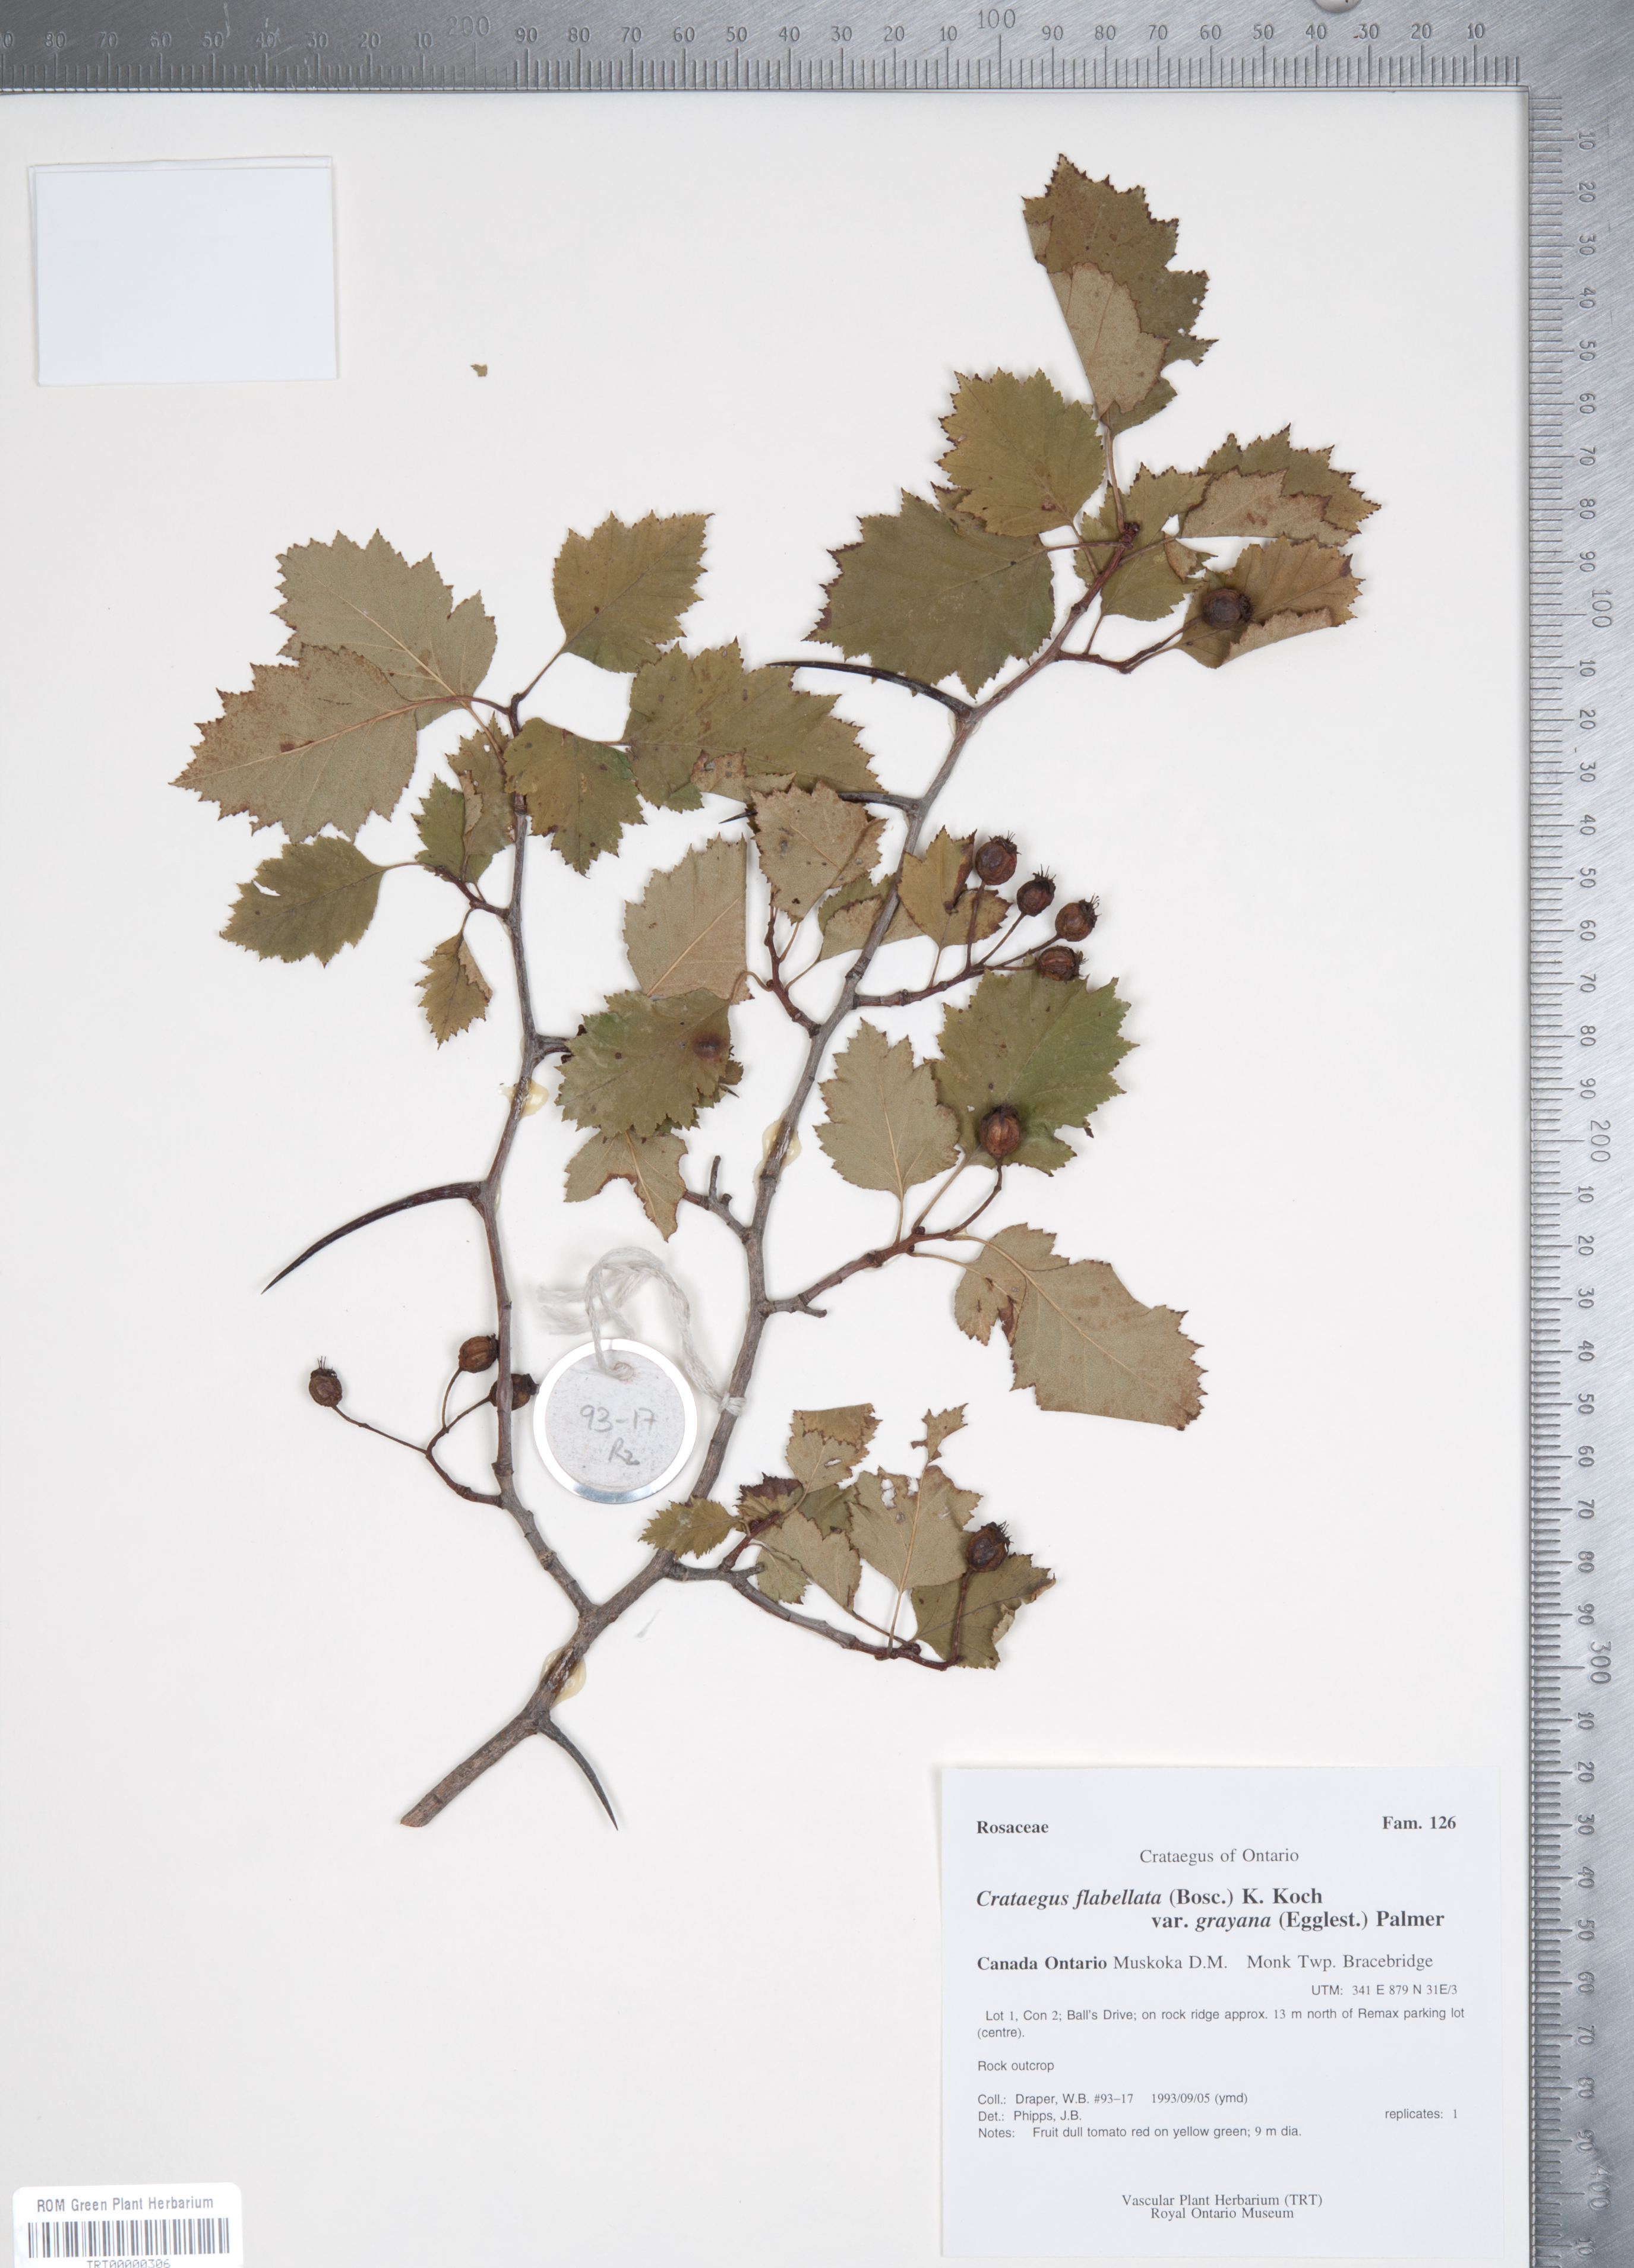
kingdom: Plantae
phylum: Tracheophyta
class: Magnoliopsida
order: Rosales
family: Rosaceae
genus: Crataegus
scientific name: Crataegus flabellata
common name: Bosc's hawthorn
